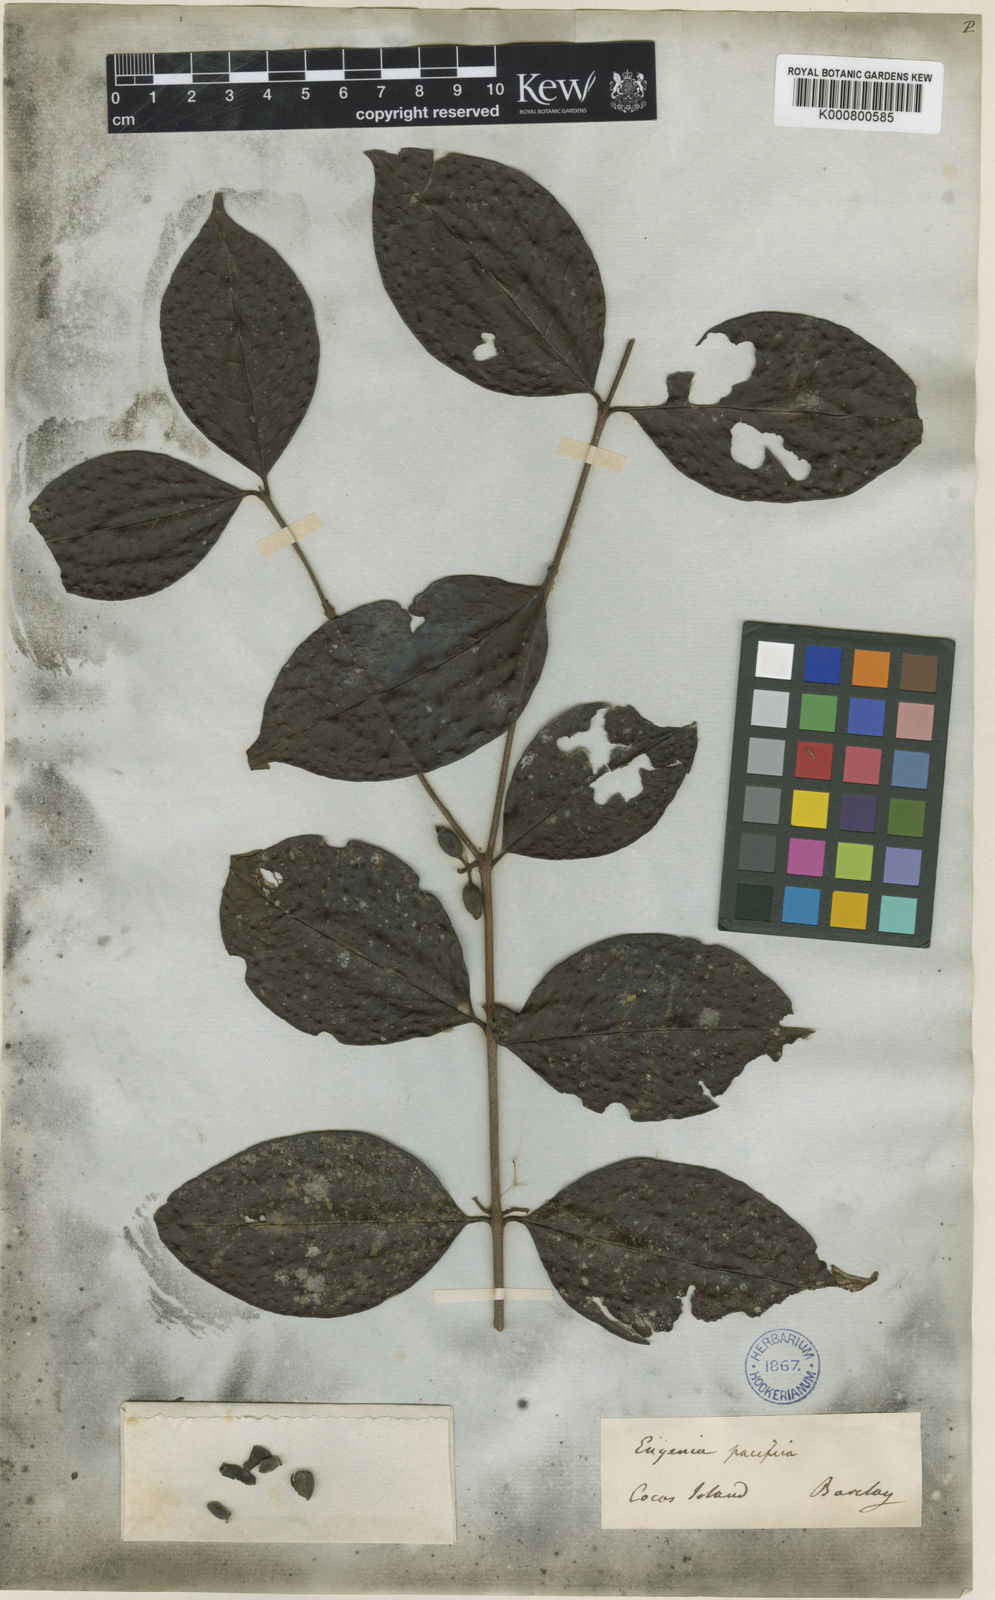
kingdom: Plantae
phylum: Tracheophyta
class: Magnoliopsida
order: Myrtales
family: Myrtaceae
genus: Syzygium
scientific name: Syzygium
